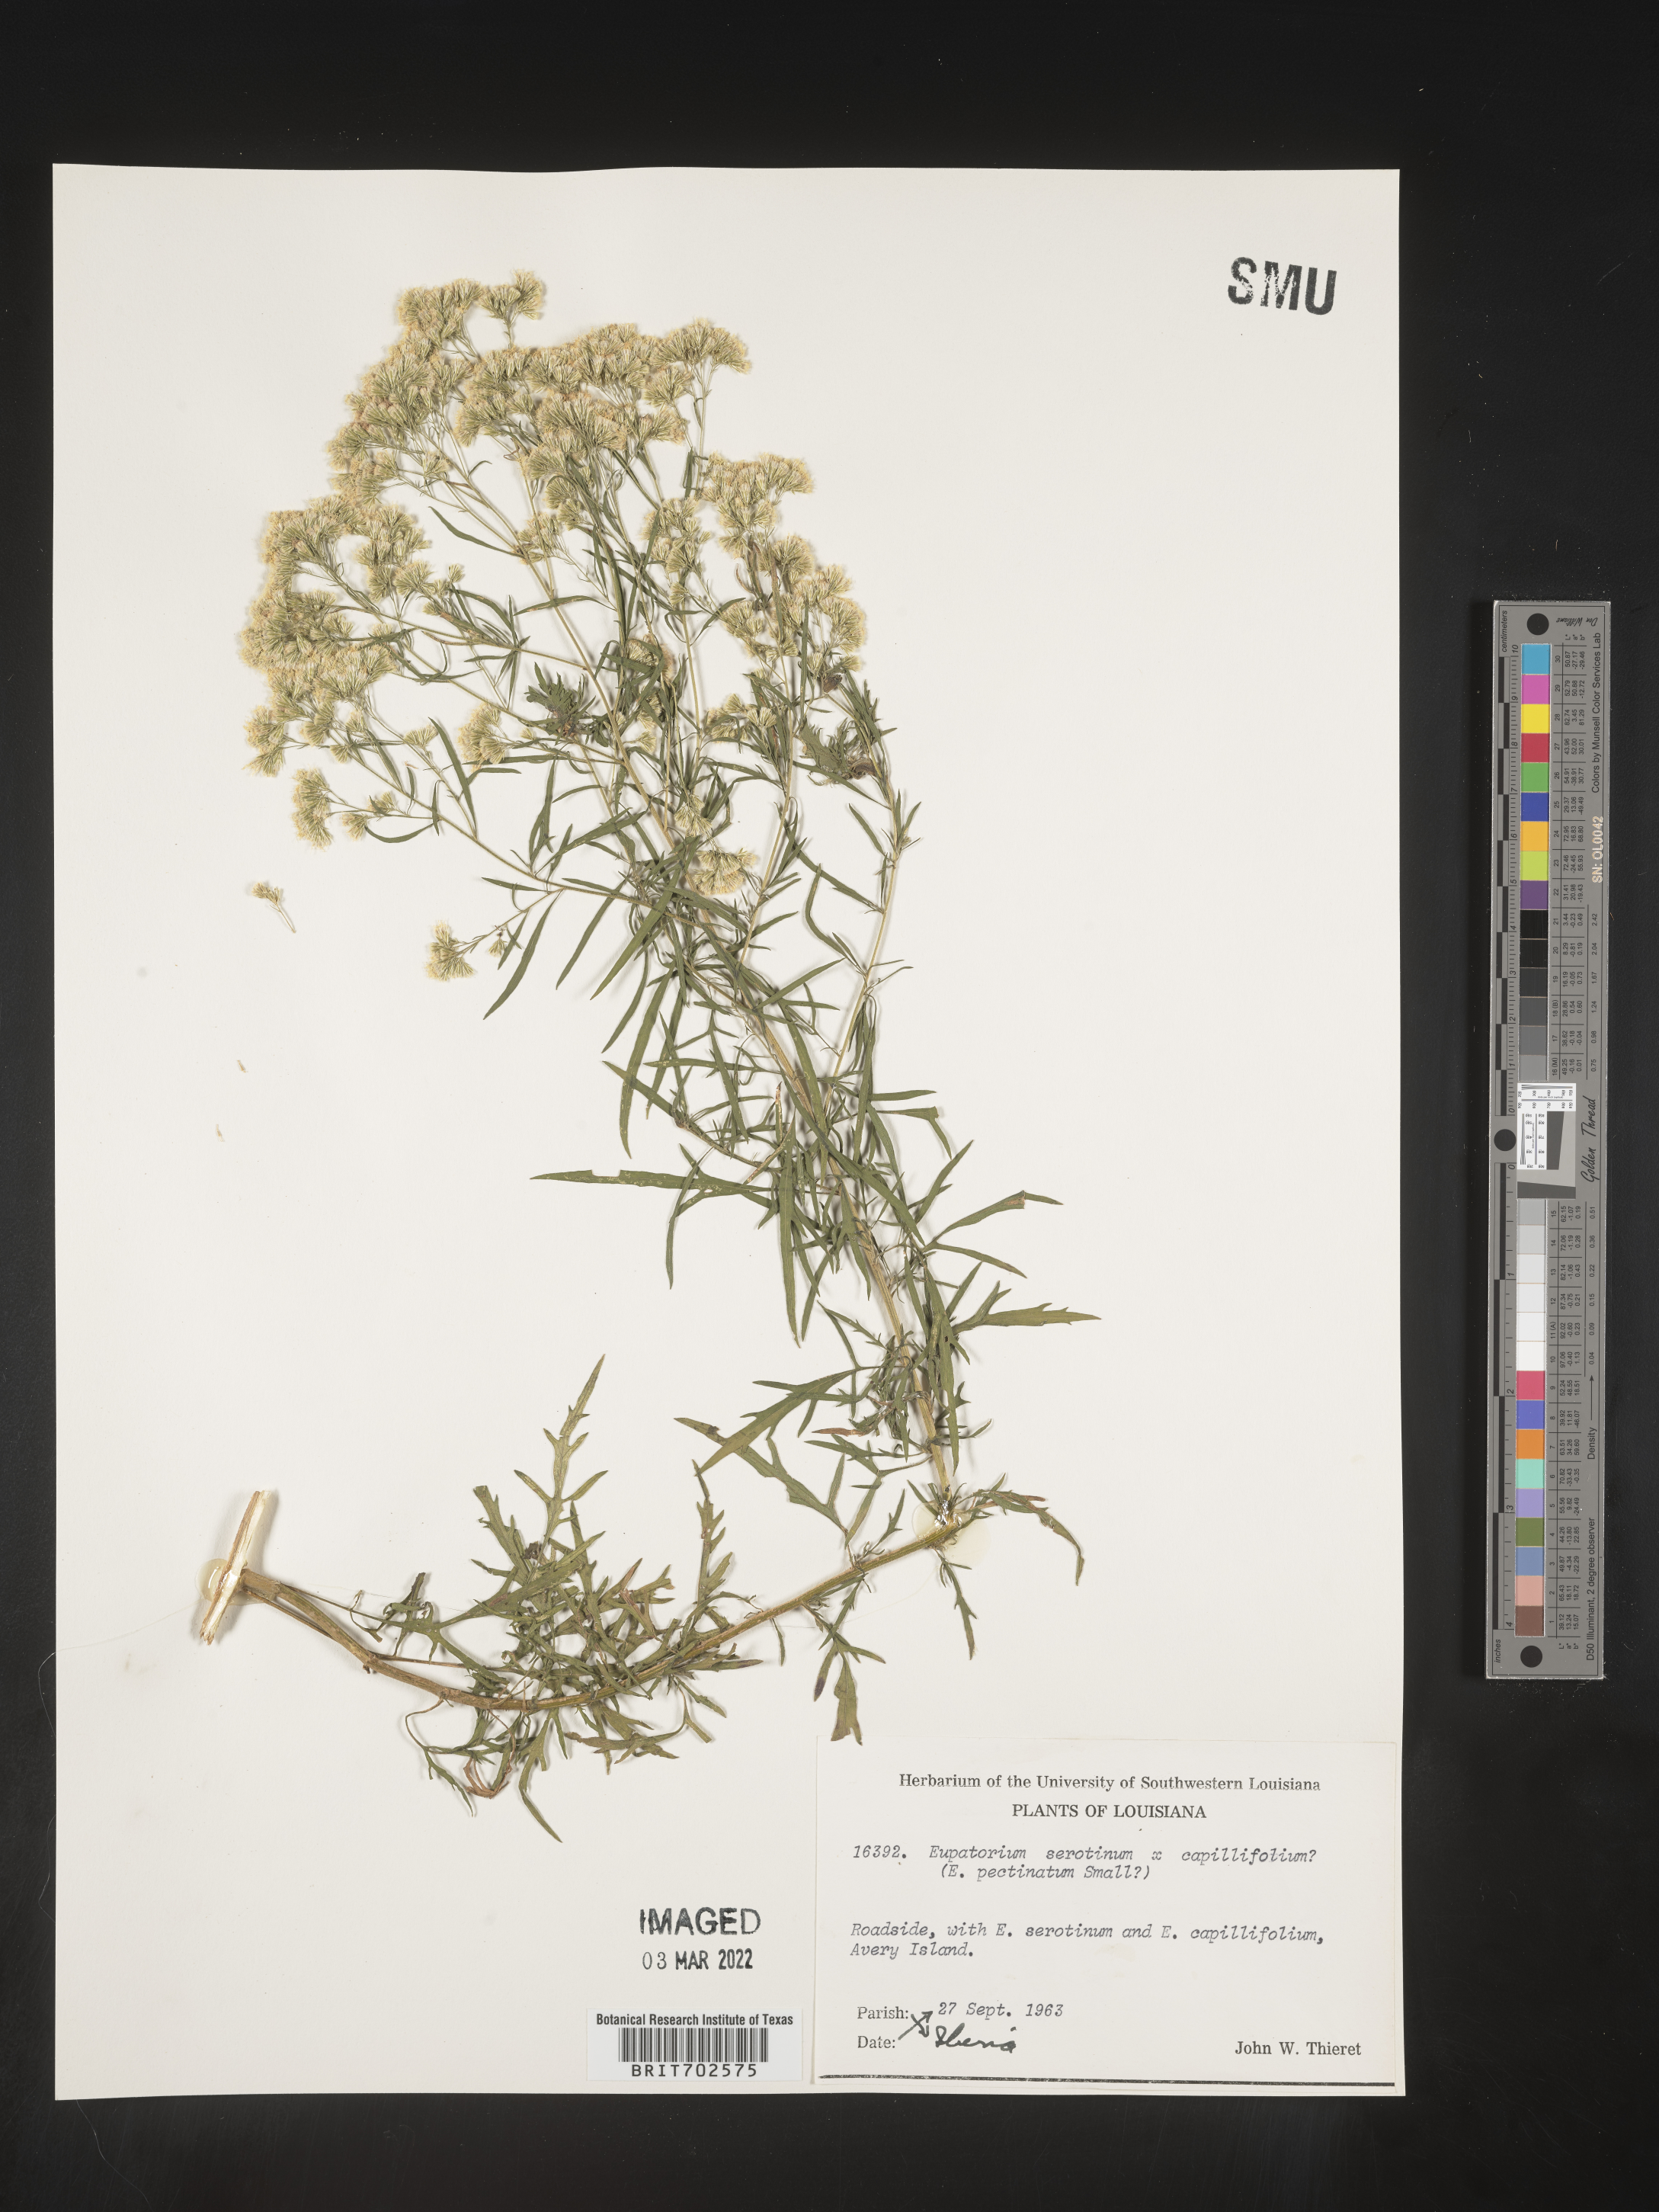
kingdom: Plantae
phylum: Tracheophyta
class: Magnoliopsida
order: Asterales
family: Asteraceae
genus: Eupatorium
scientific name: Eupatorium serotinum
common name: Late boneset
